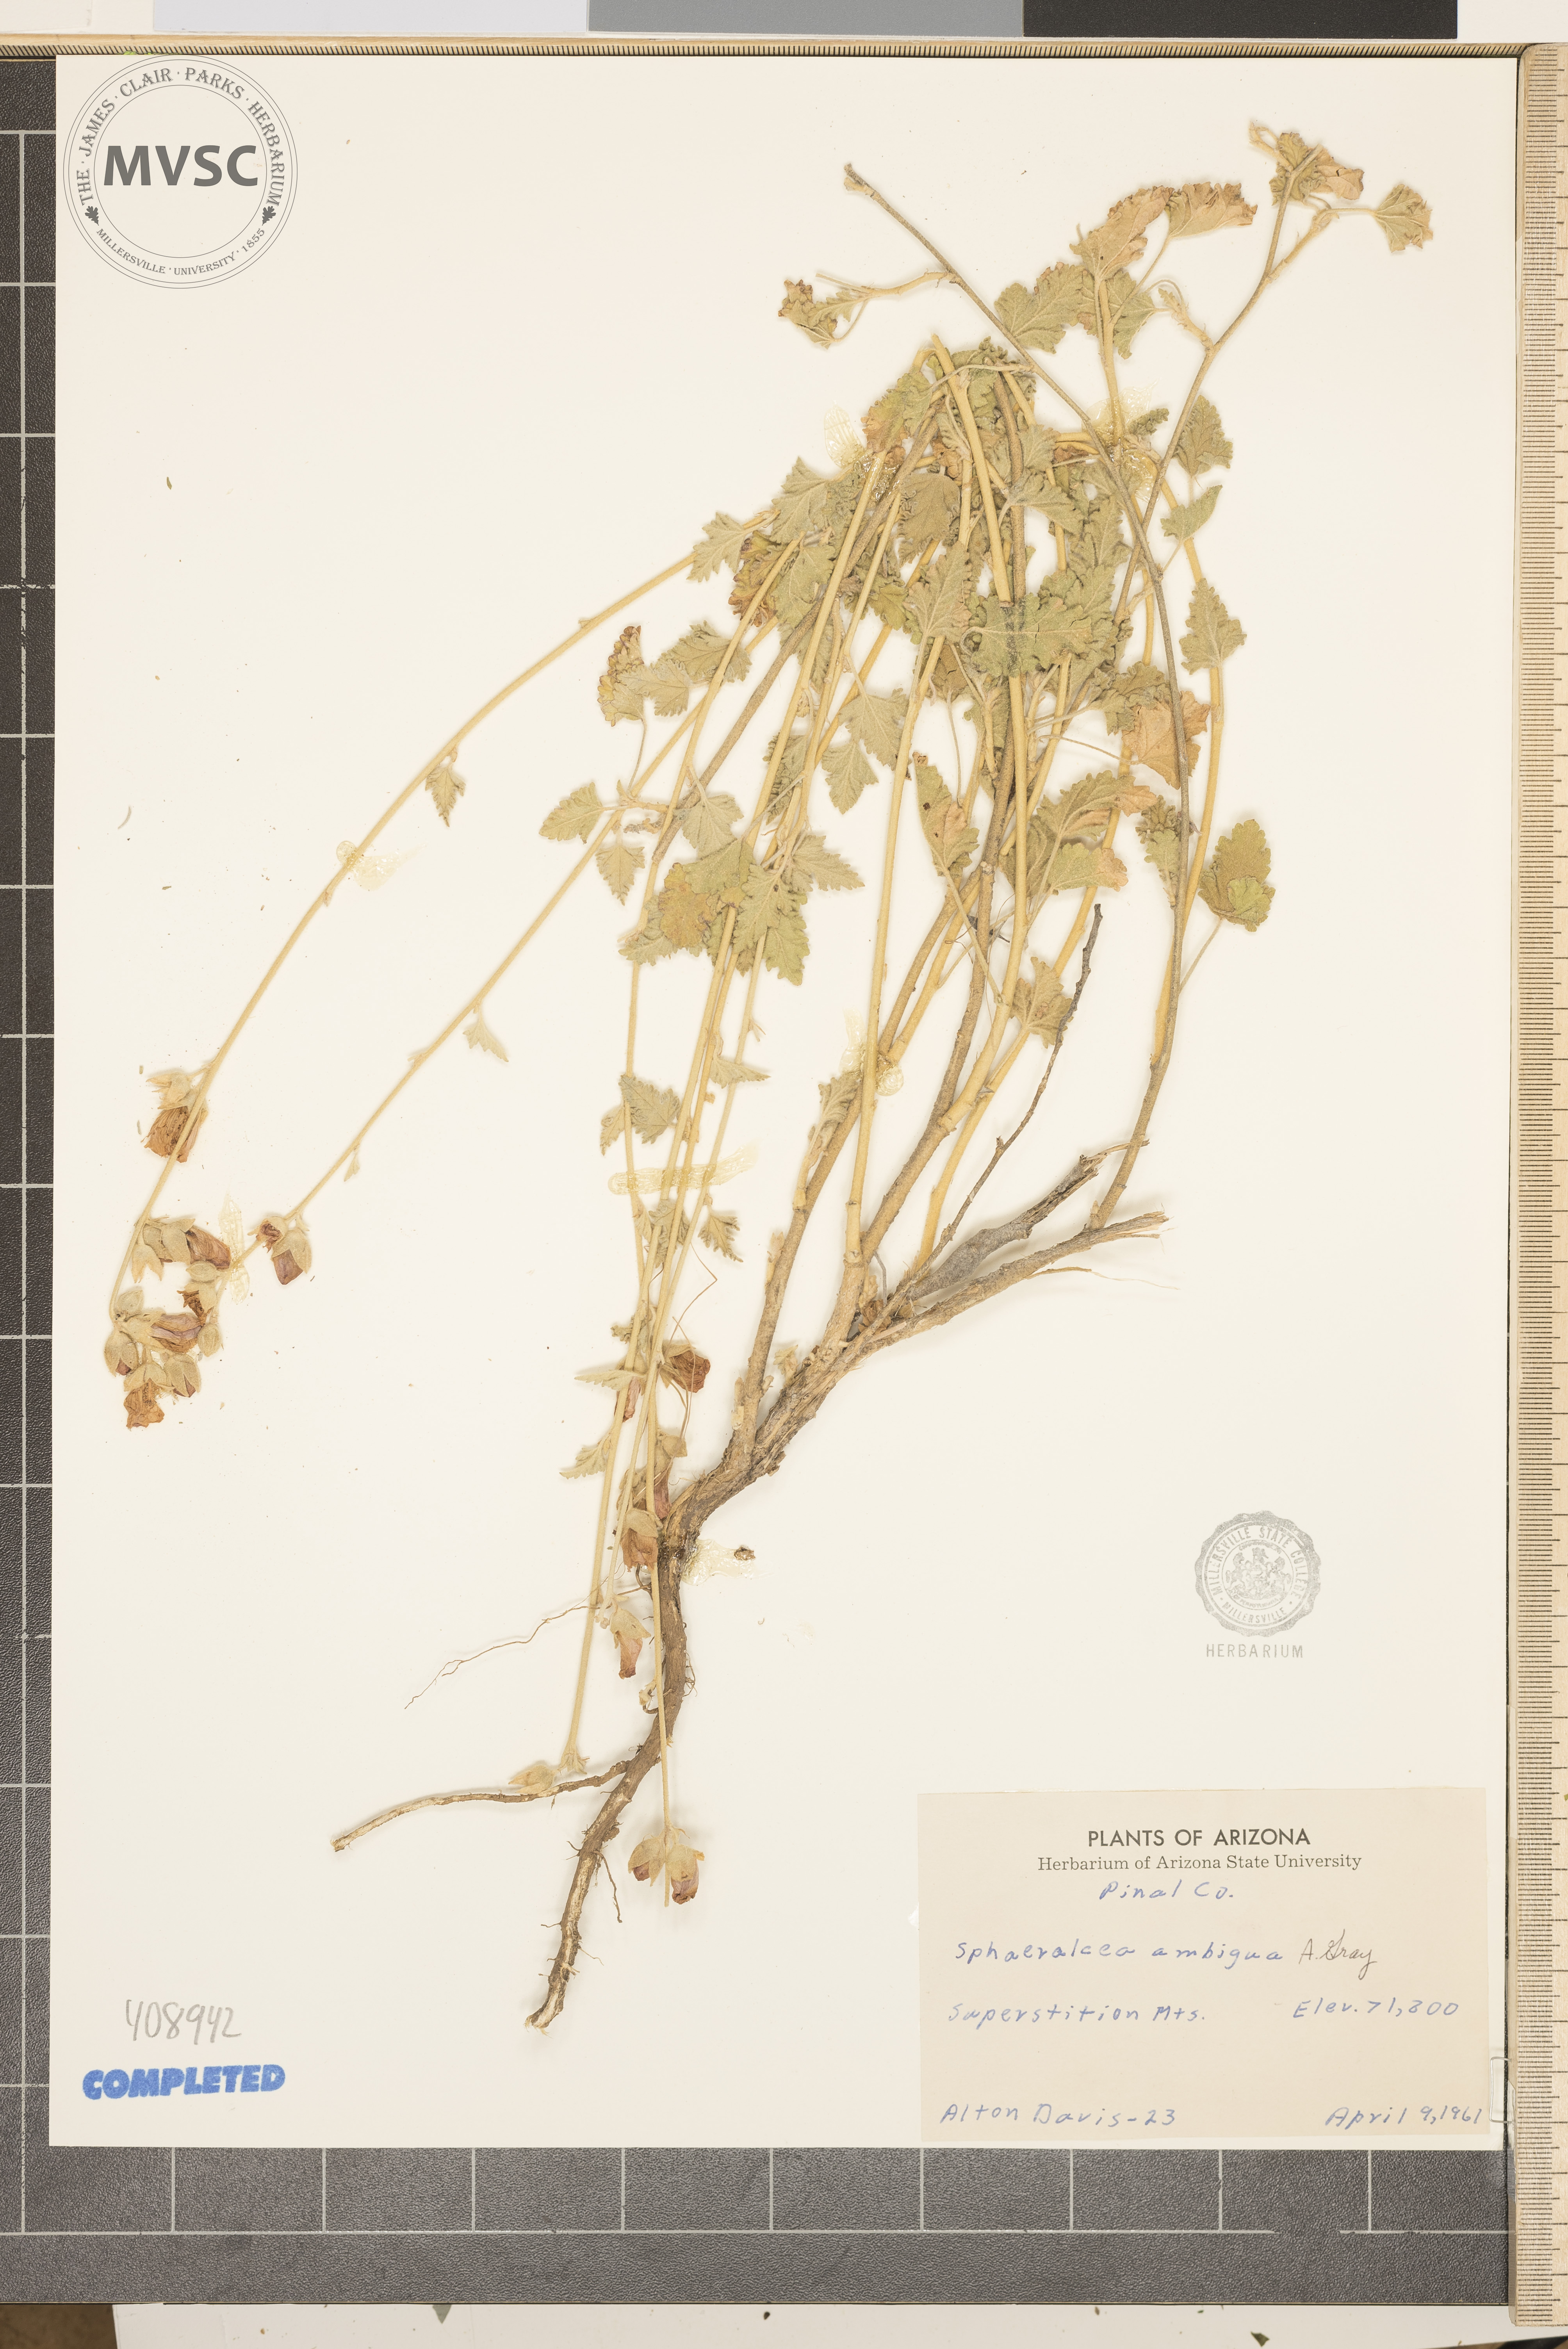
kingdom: Plantae
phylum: Tracheophyta
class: Magnoliopsida
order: Malvales
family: Malvaceae
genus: Sphaeralcea
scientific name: Sphaeralcea ambigua
